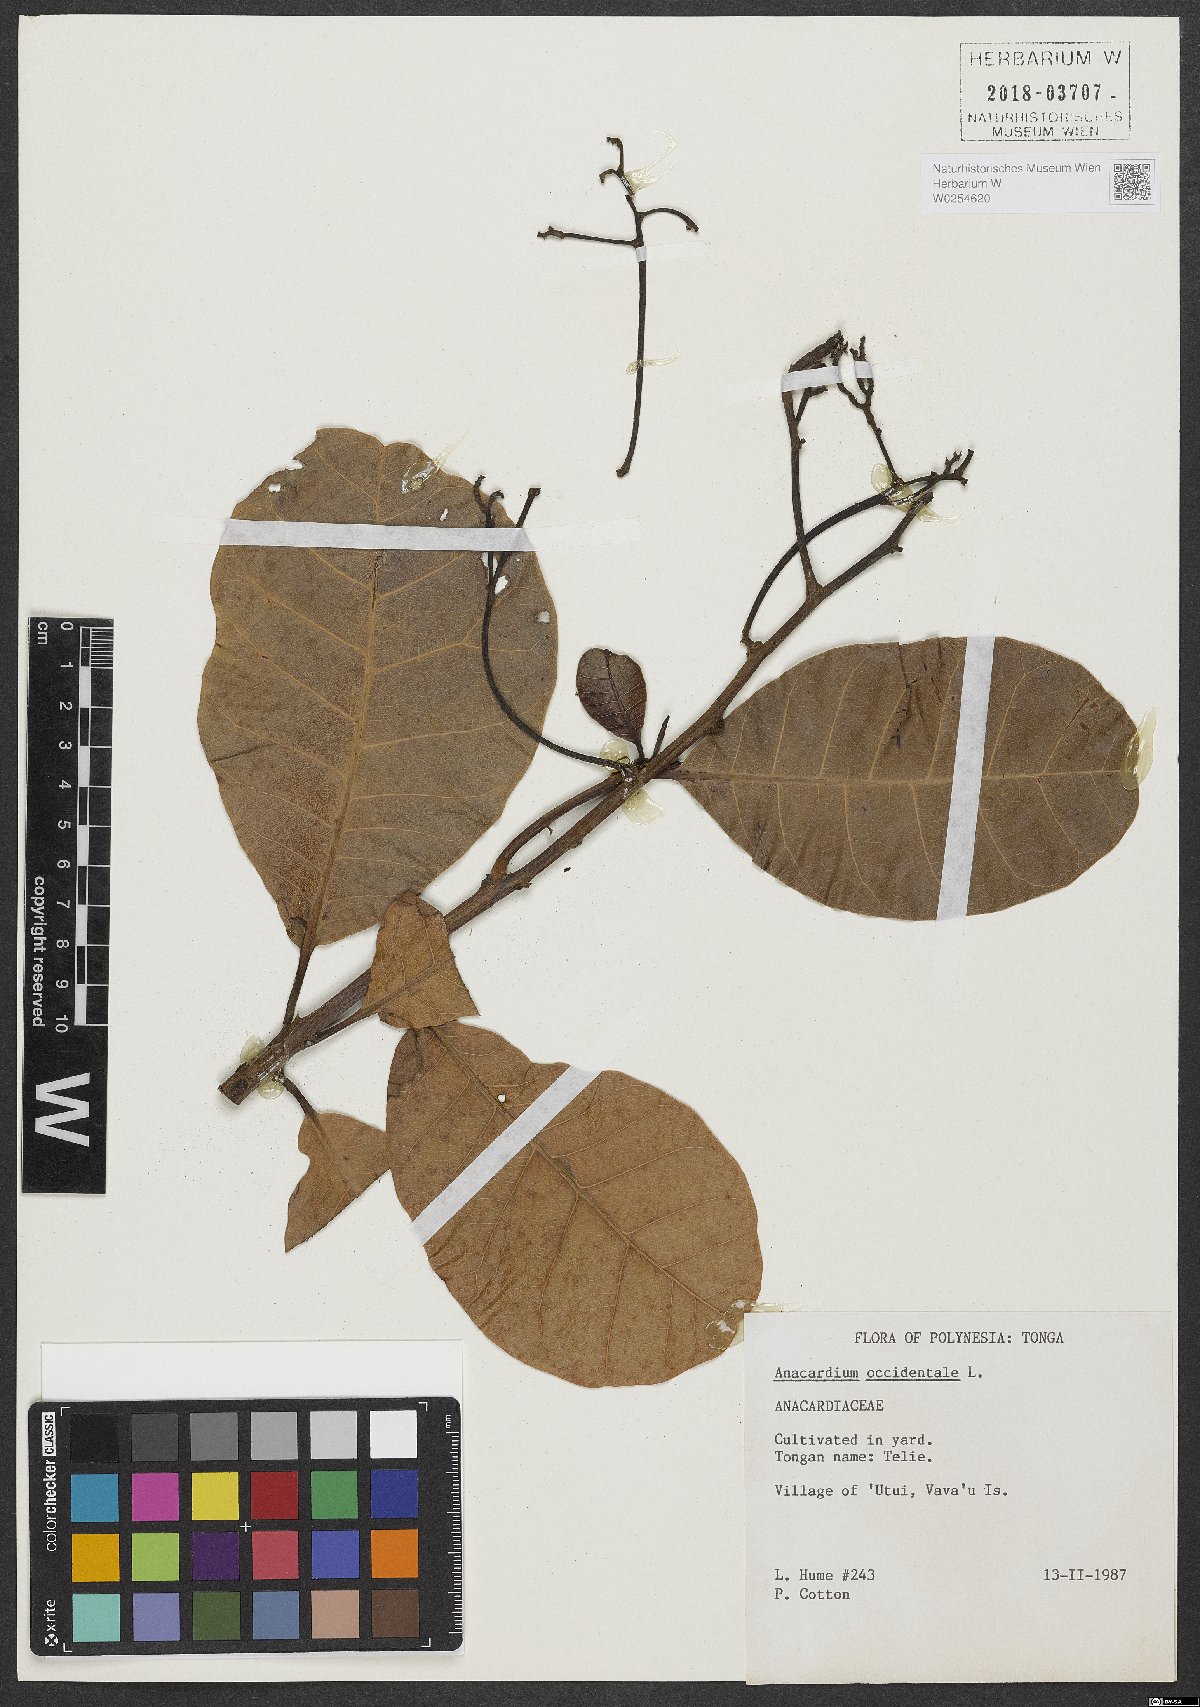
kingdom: Plantae
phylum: Tracheophyta
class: Magnoliopsida
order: Sapindales
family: Anacardiaceae
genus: Anacardium
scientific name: Anacardium occidentale
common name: Cashew
